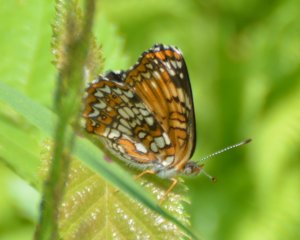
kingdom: Animalia
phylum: Arthropoda
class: Insecta
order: Lepidoptera
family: Nymphalidae
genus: Chlosyne
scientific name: Chlosyne harrisii
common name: Harris's Checkerspot
